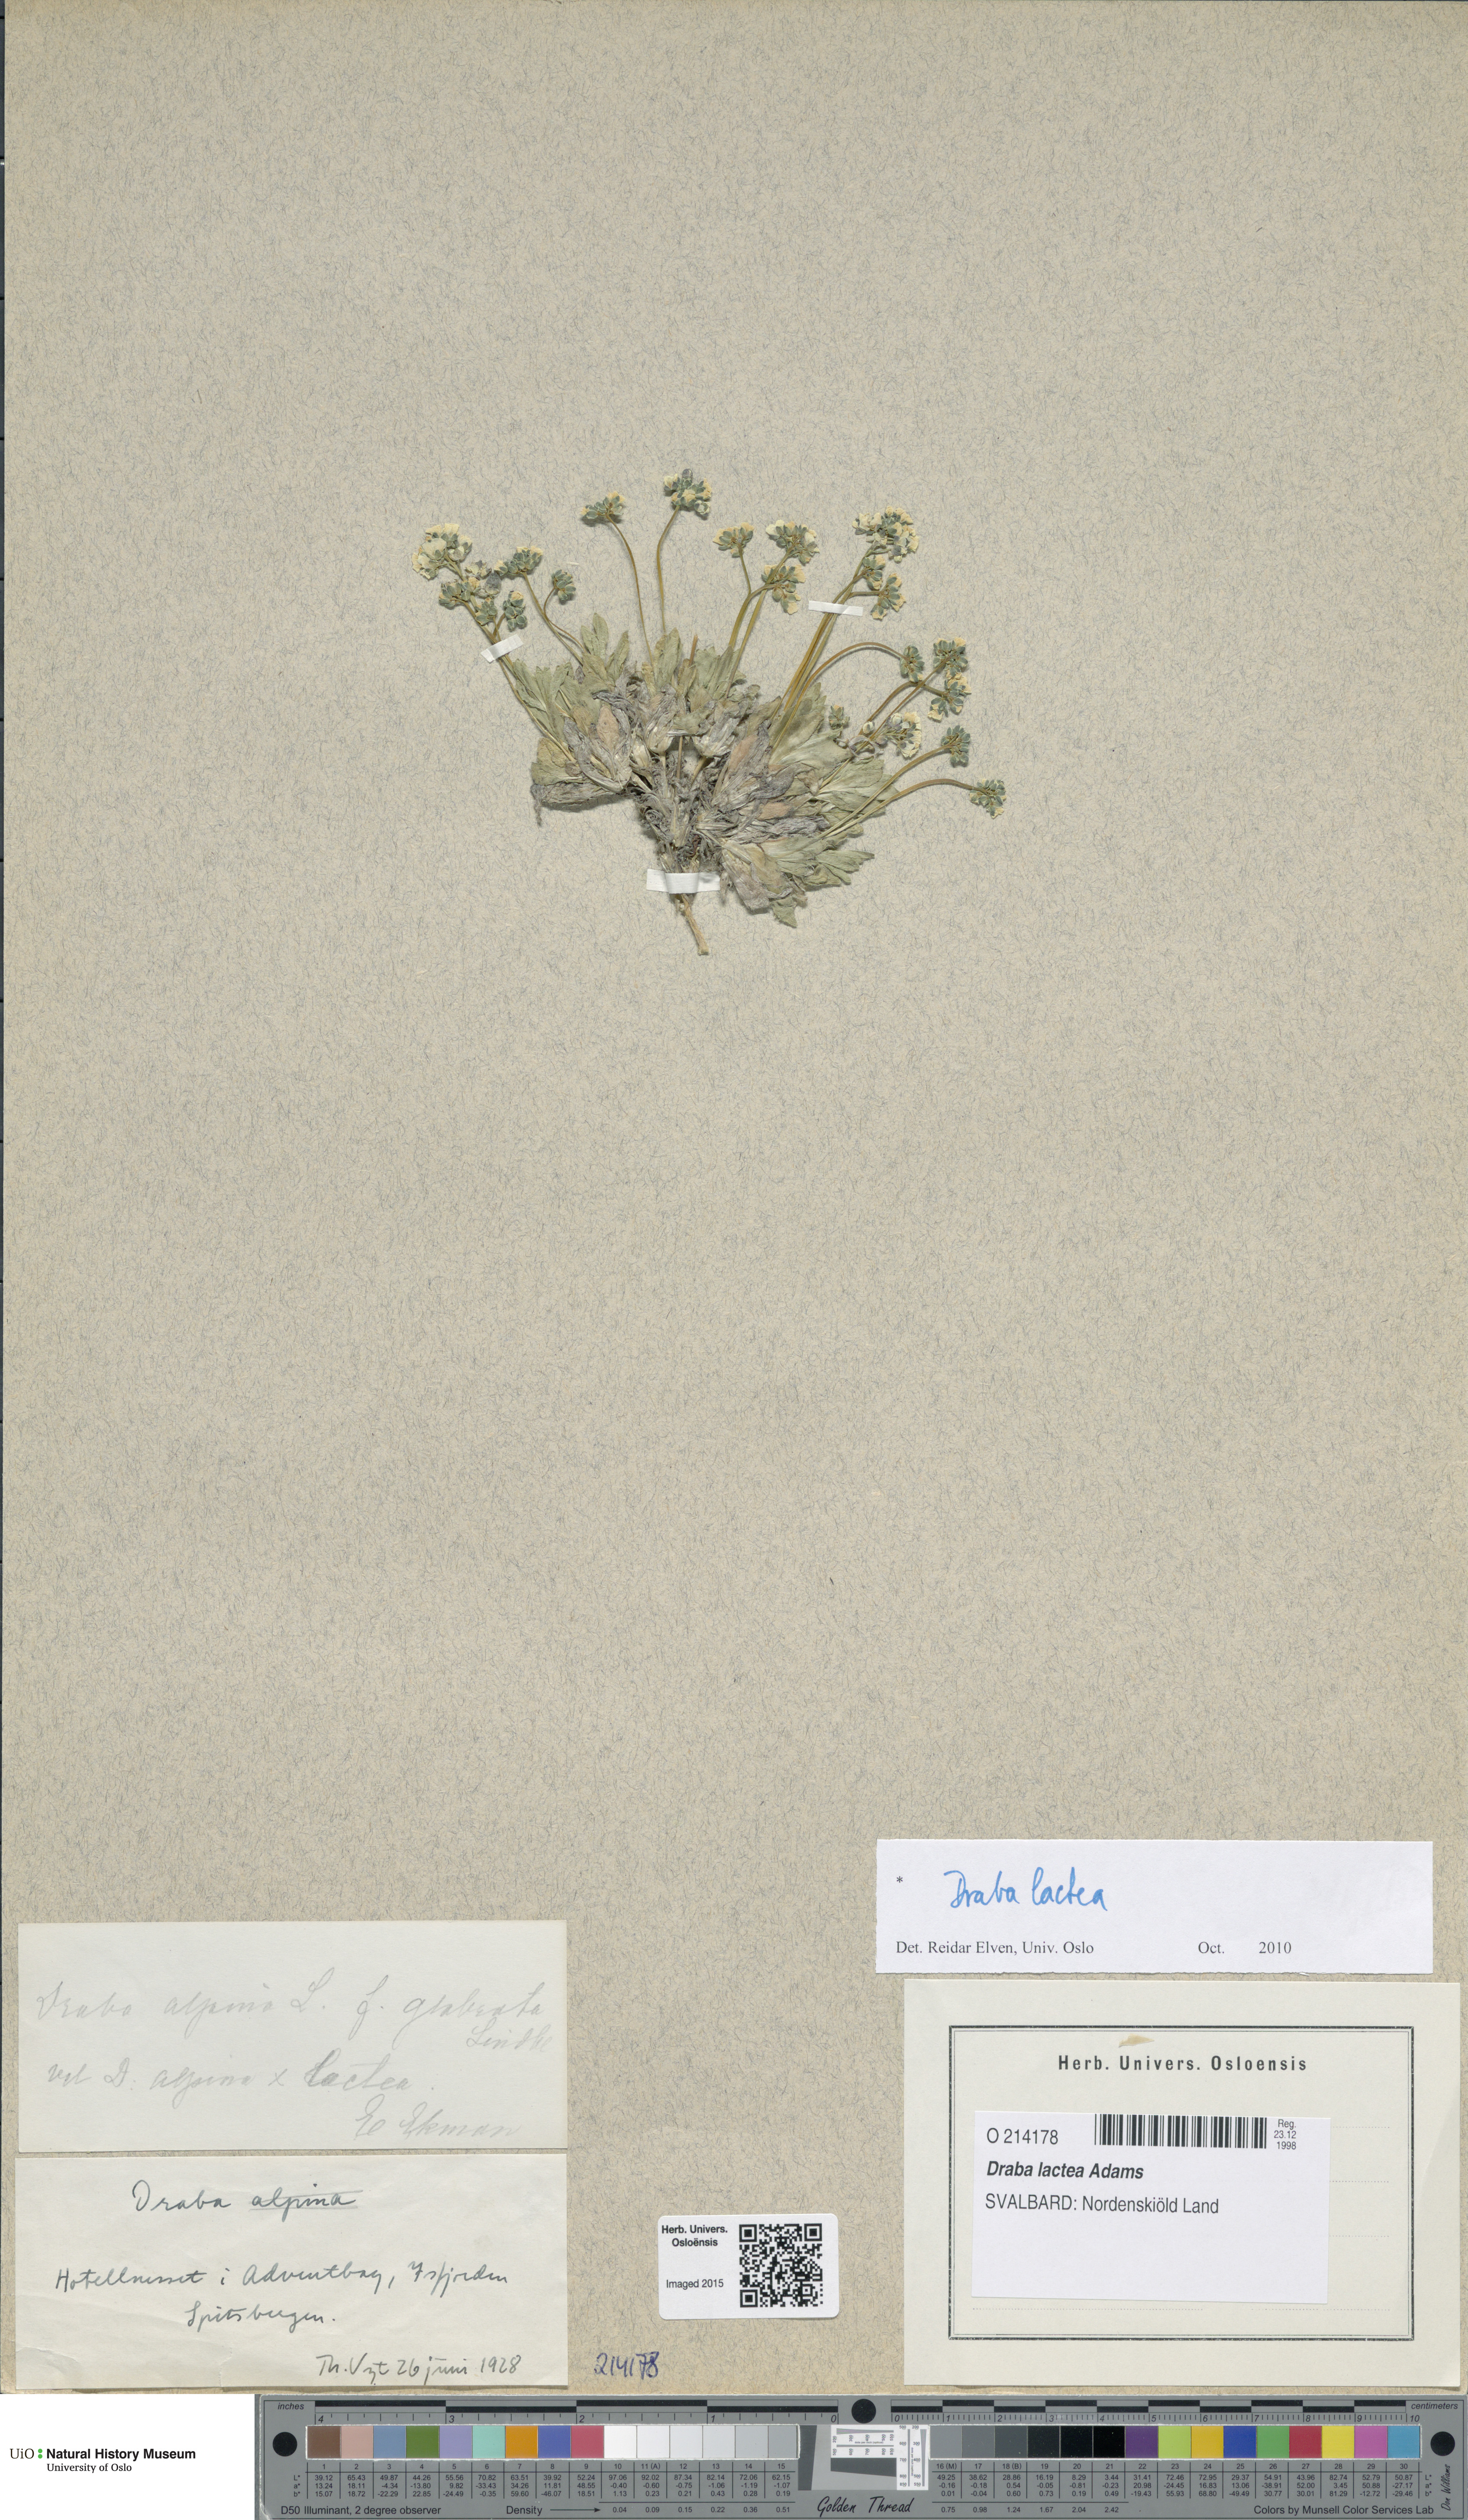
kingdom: Plantae
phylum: Tracheophyta
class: Magnoliopsida
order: Brassicales
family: Brassicaceae
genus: Draba
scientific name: Draba lactea
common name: Milky draba
